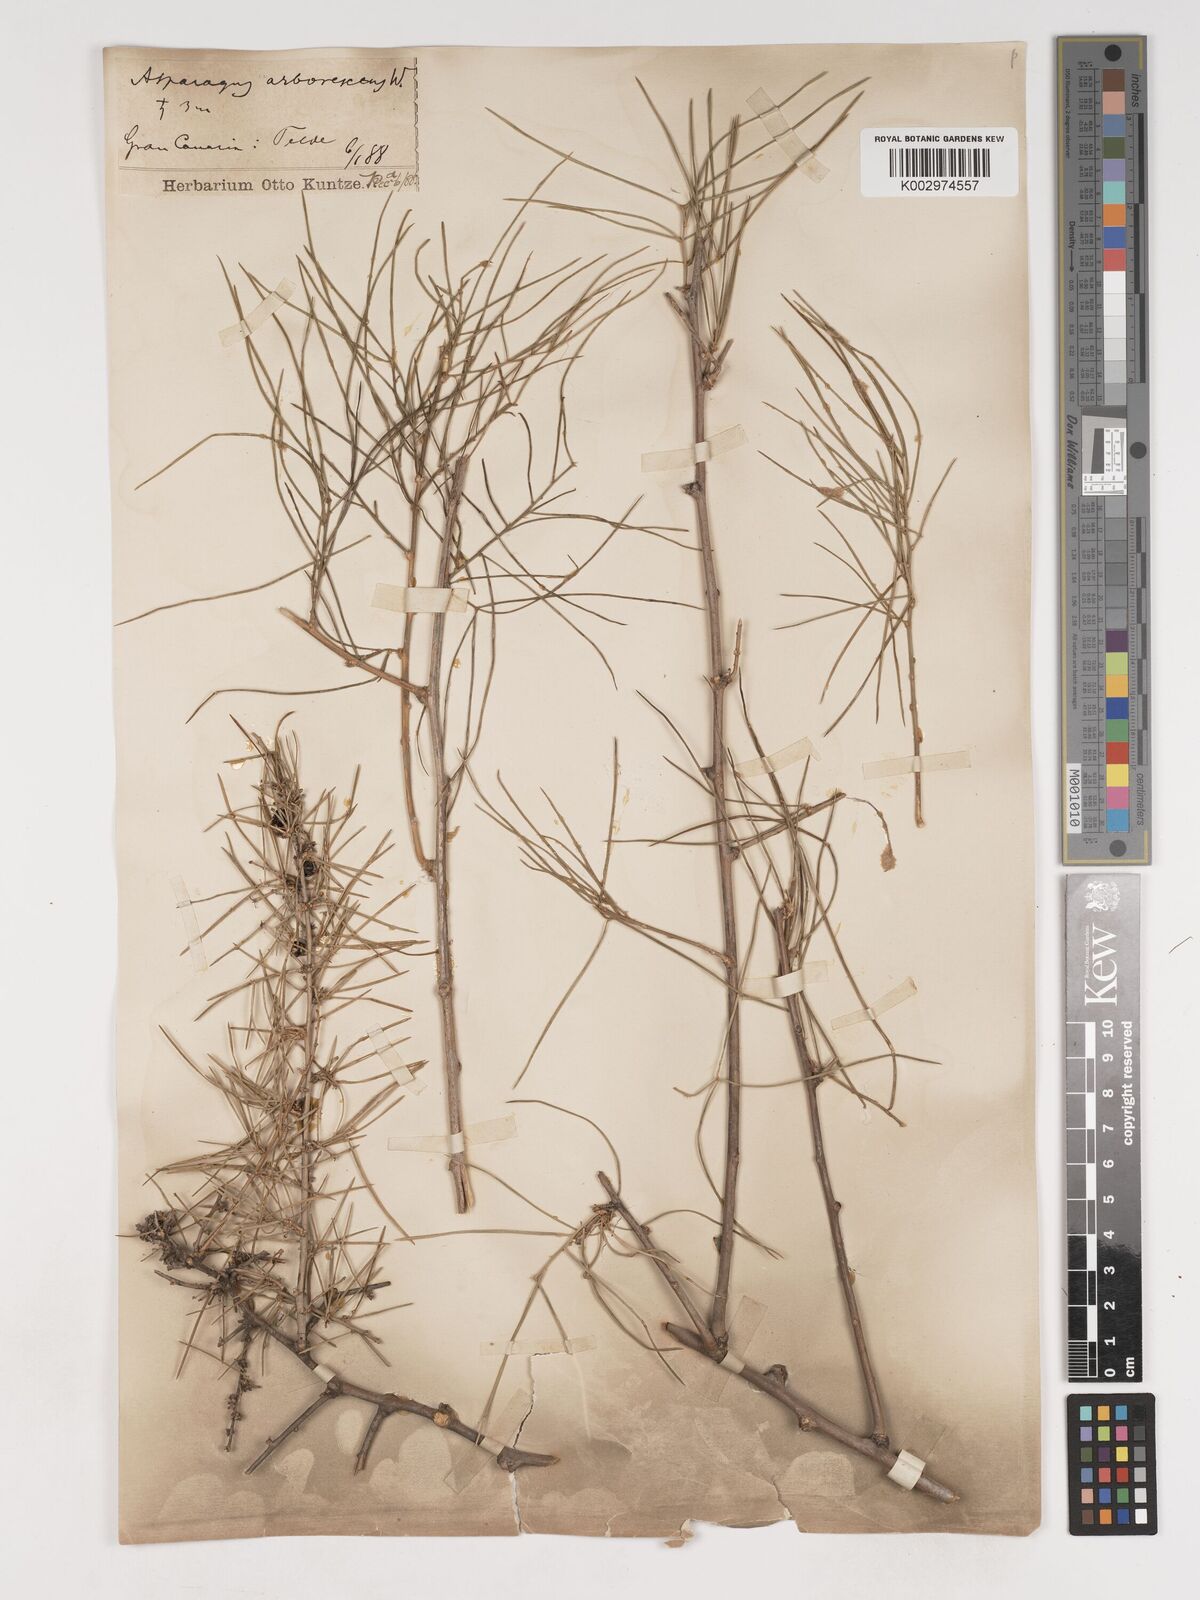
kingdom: Plantae
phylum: Tracheophyta
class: Liliopsida
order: Asparagales
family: Asparagaceae
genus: Asparagus
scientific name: Asparagus arborescens
